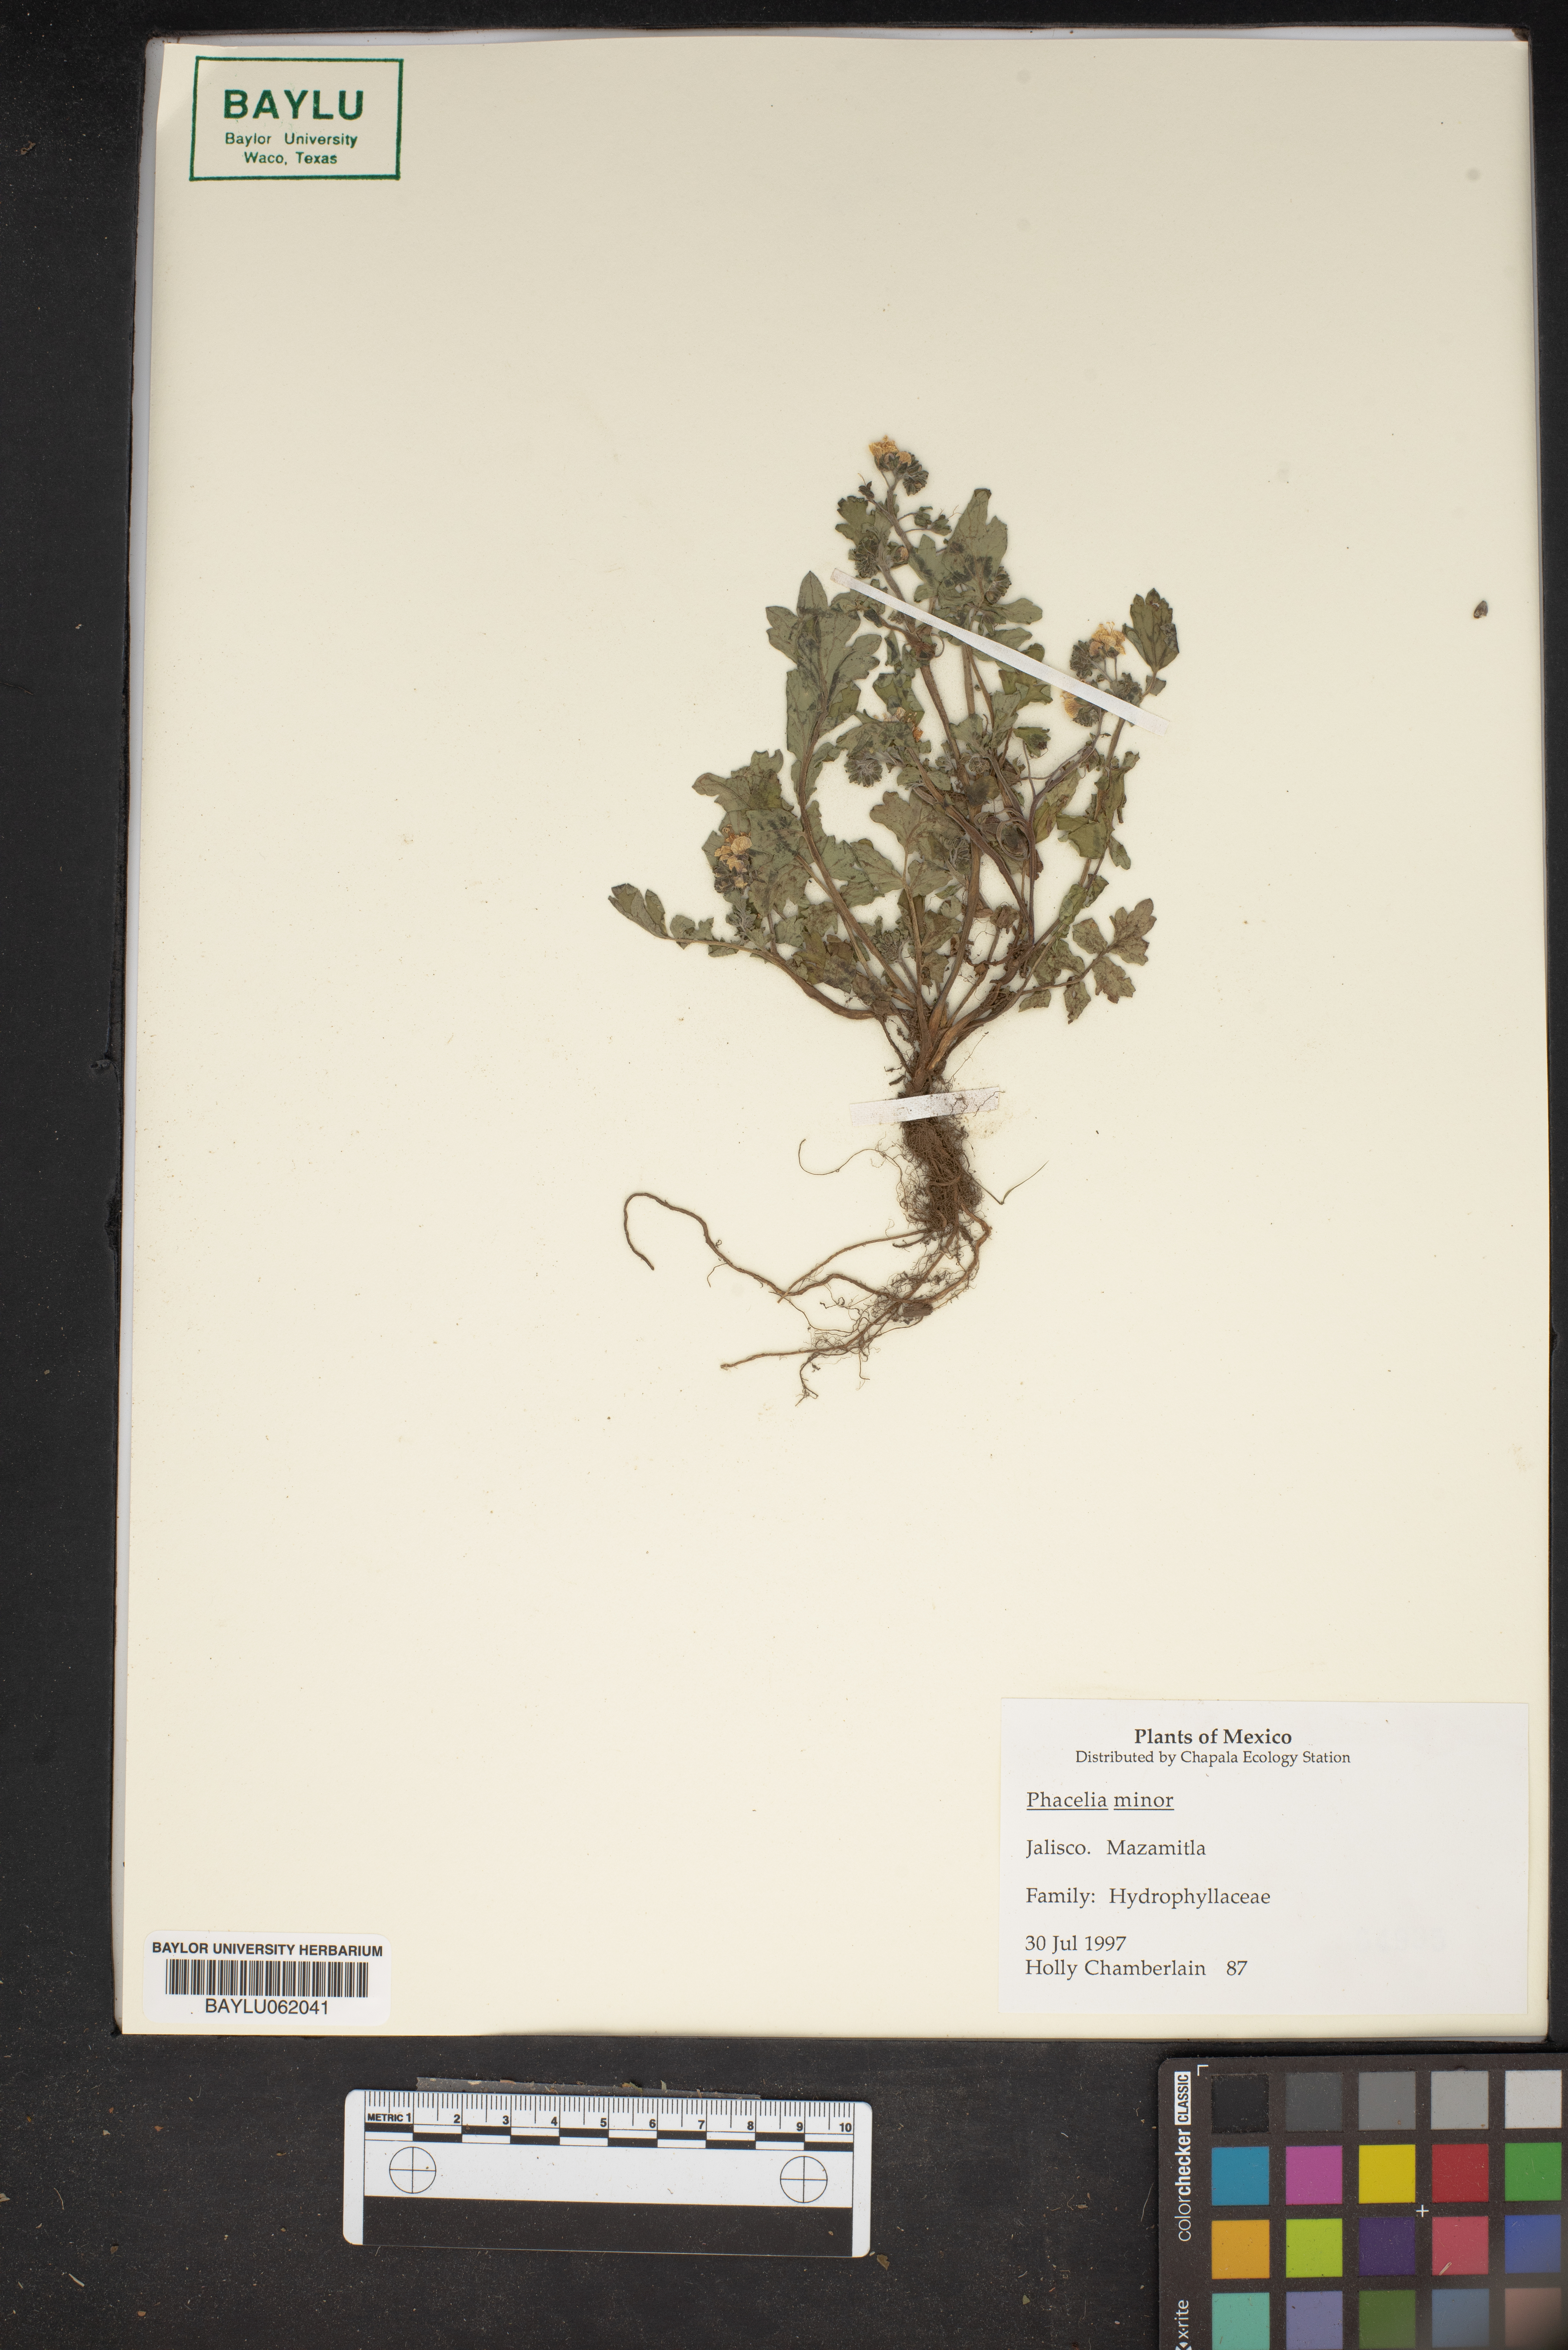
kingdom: Plantae
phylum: Tracheophyta
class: Magnoliopsida
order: Boraginales
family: Hydrophyllaceae
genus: Phacelia
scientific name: Phacelia minor
